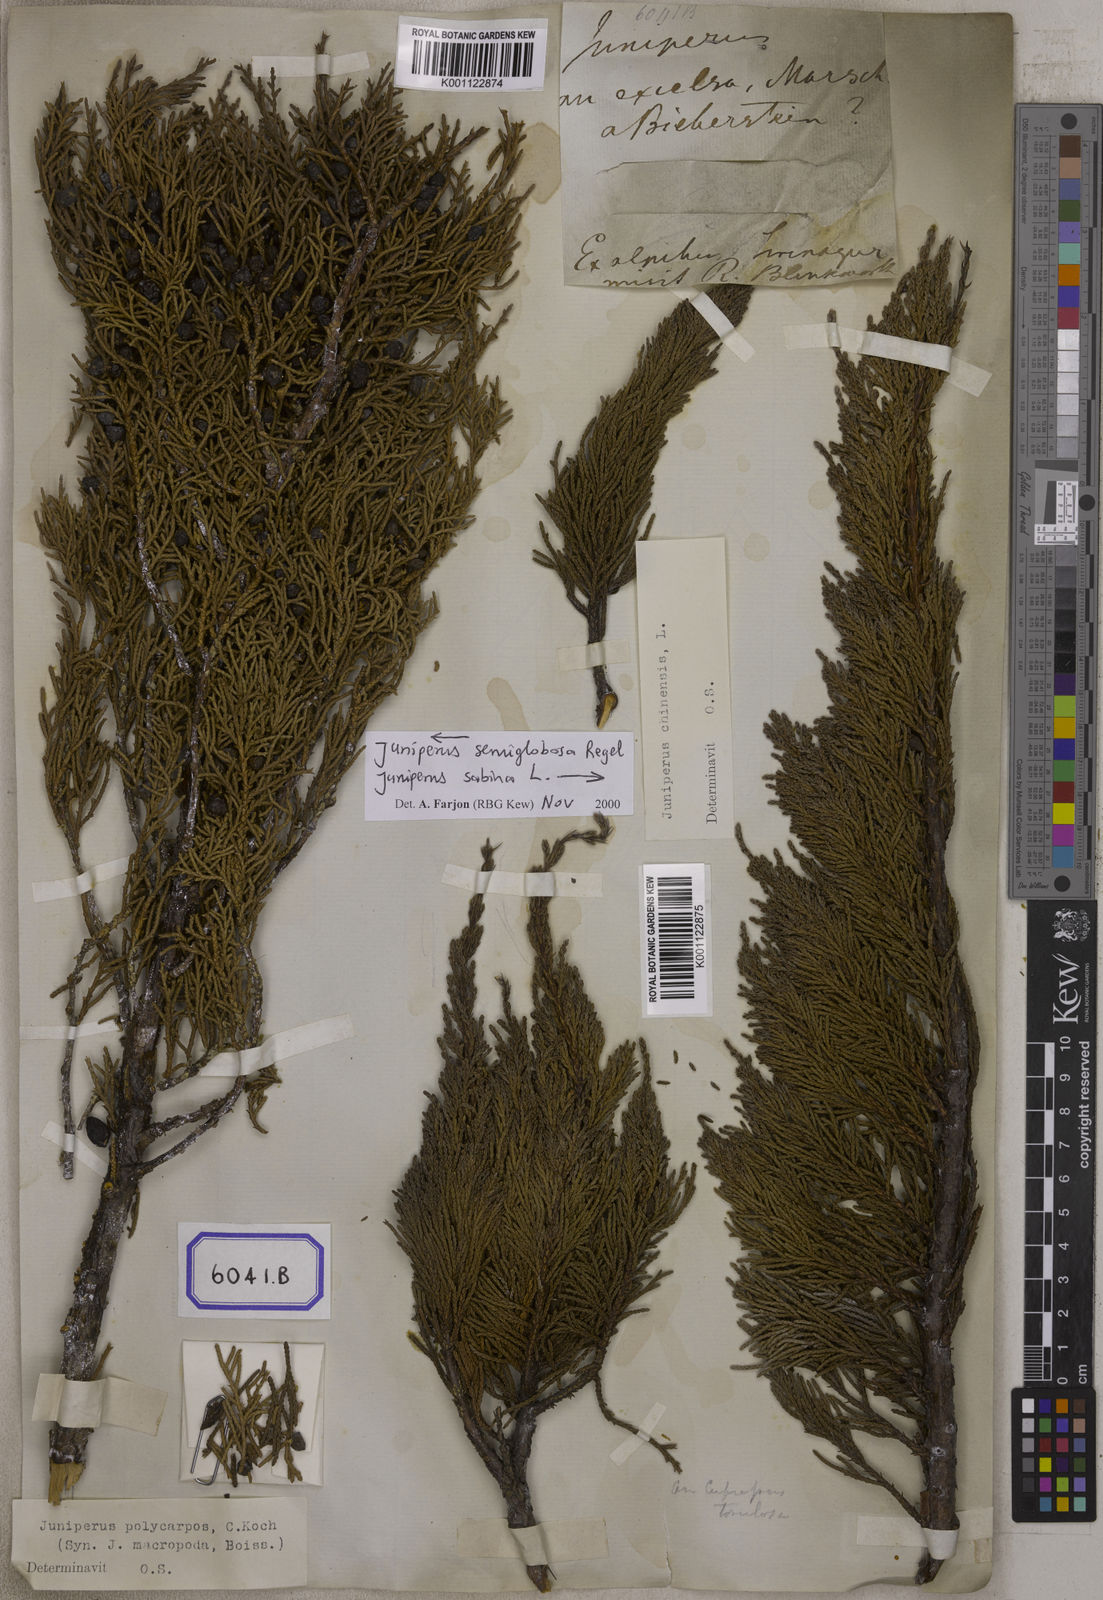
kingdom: Plantae
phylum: Tracheophyta
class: Pinopsida
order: Pinales
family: Cupressaceae
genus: Juniperus
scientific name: Juniperus semiglobosa
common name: Pencil cedar
